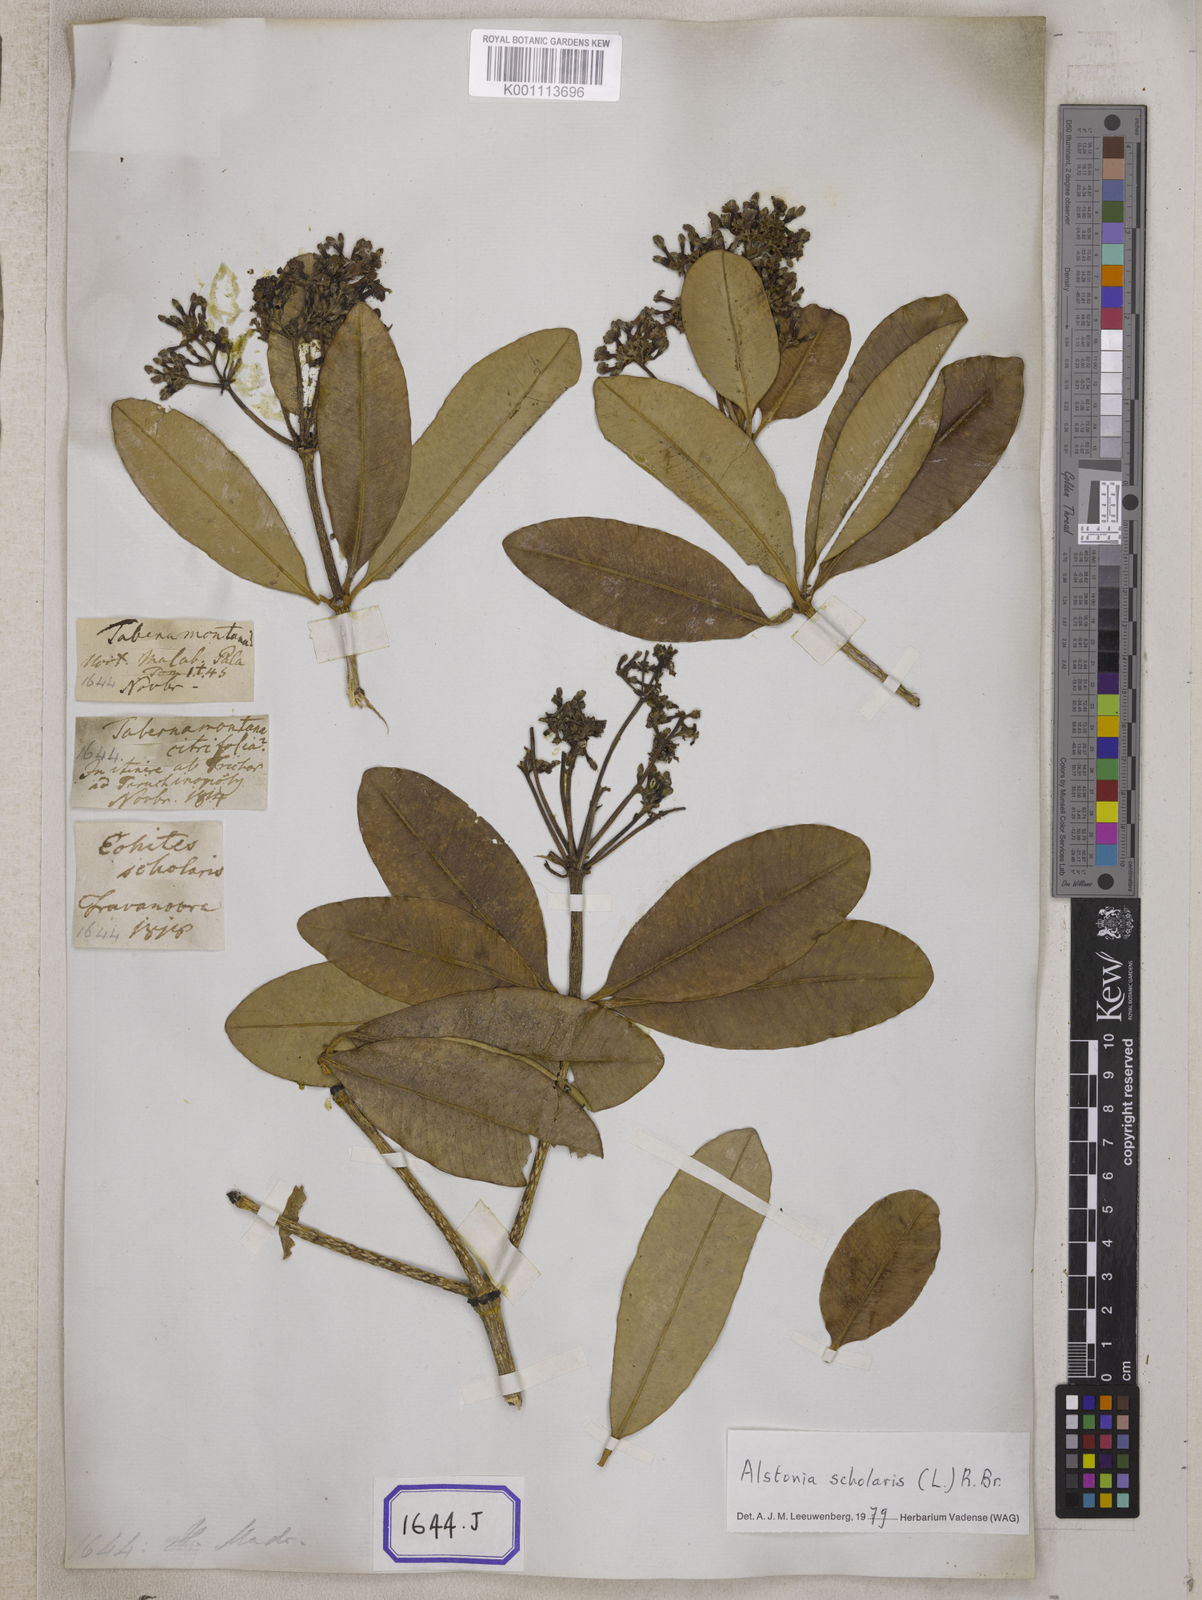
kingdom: Plantae
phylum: Tracheophyta
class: Magnoliopsida
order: Gentianales
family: Apocynaceae
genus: Alstonia
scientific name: Alstonia scholaris
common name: White cheesewood
